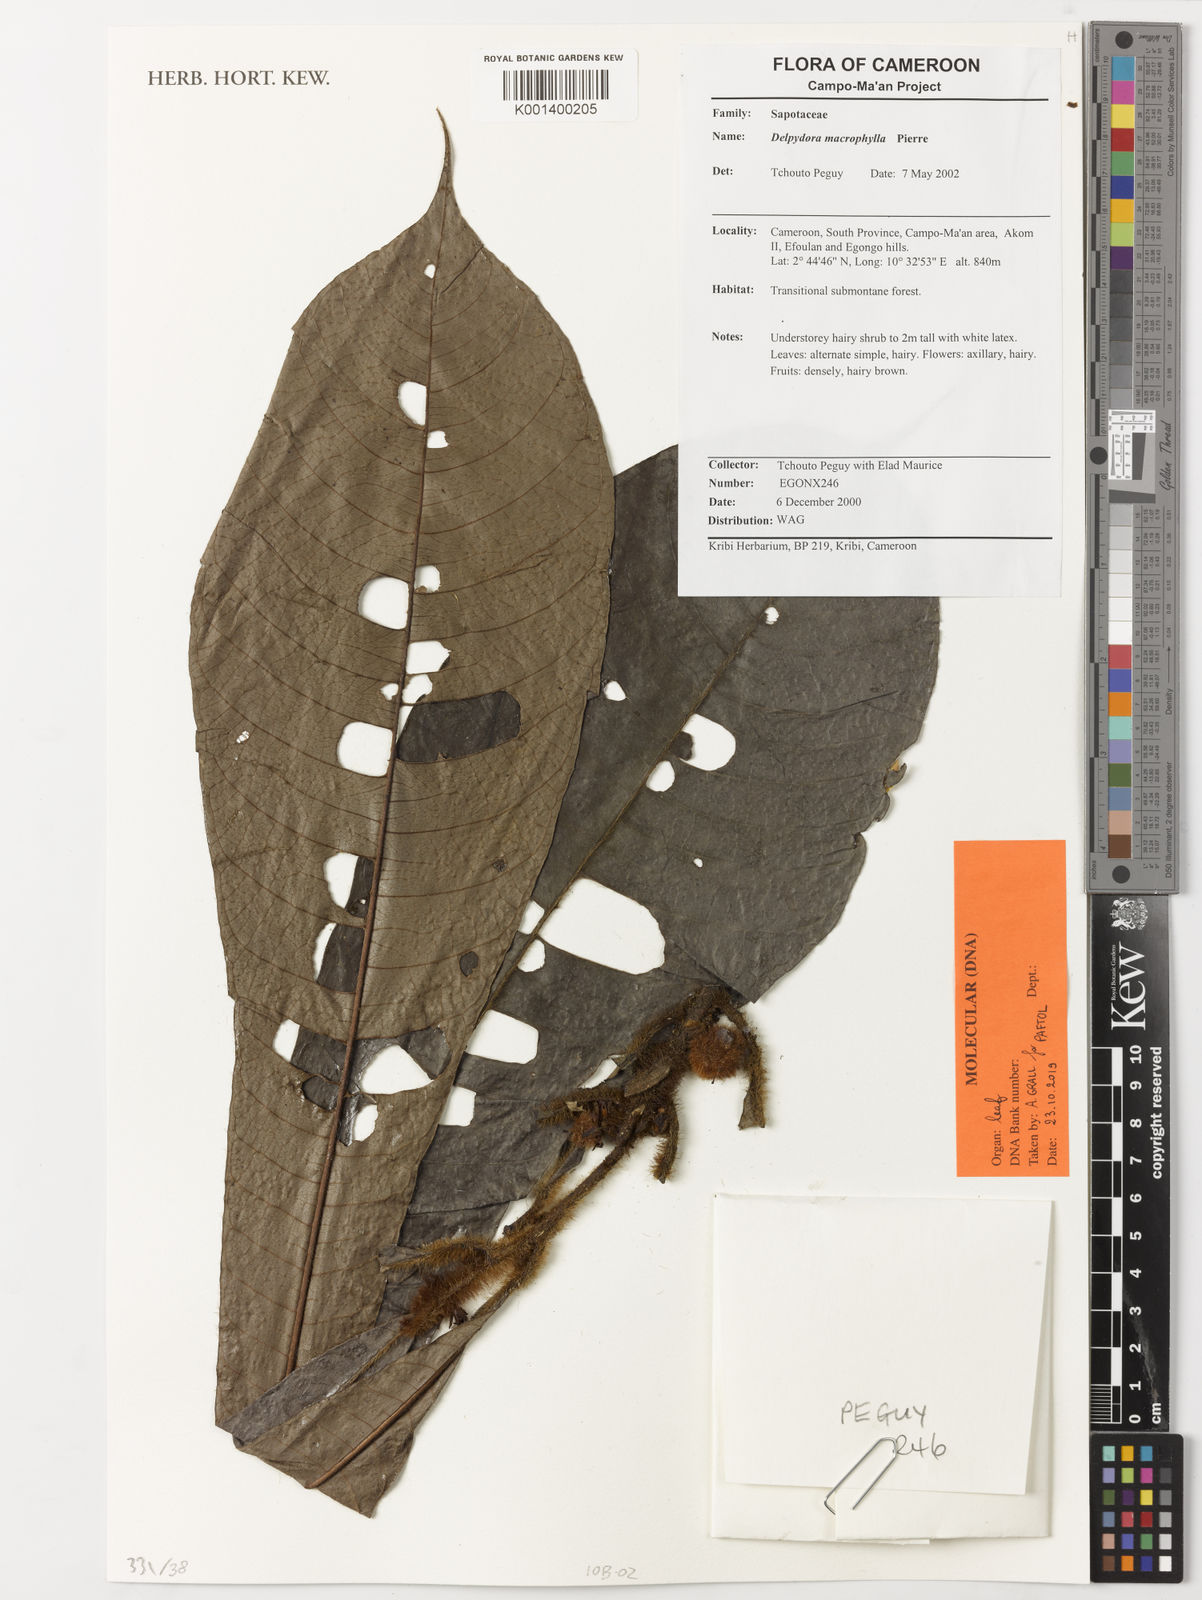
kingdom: Plantae
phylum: Tracheophyta
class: Magnoliopsida
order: Ericales
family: Sapotaceae
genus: Delpydora
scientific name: Delpydora macrophylla
